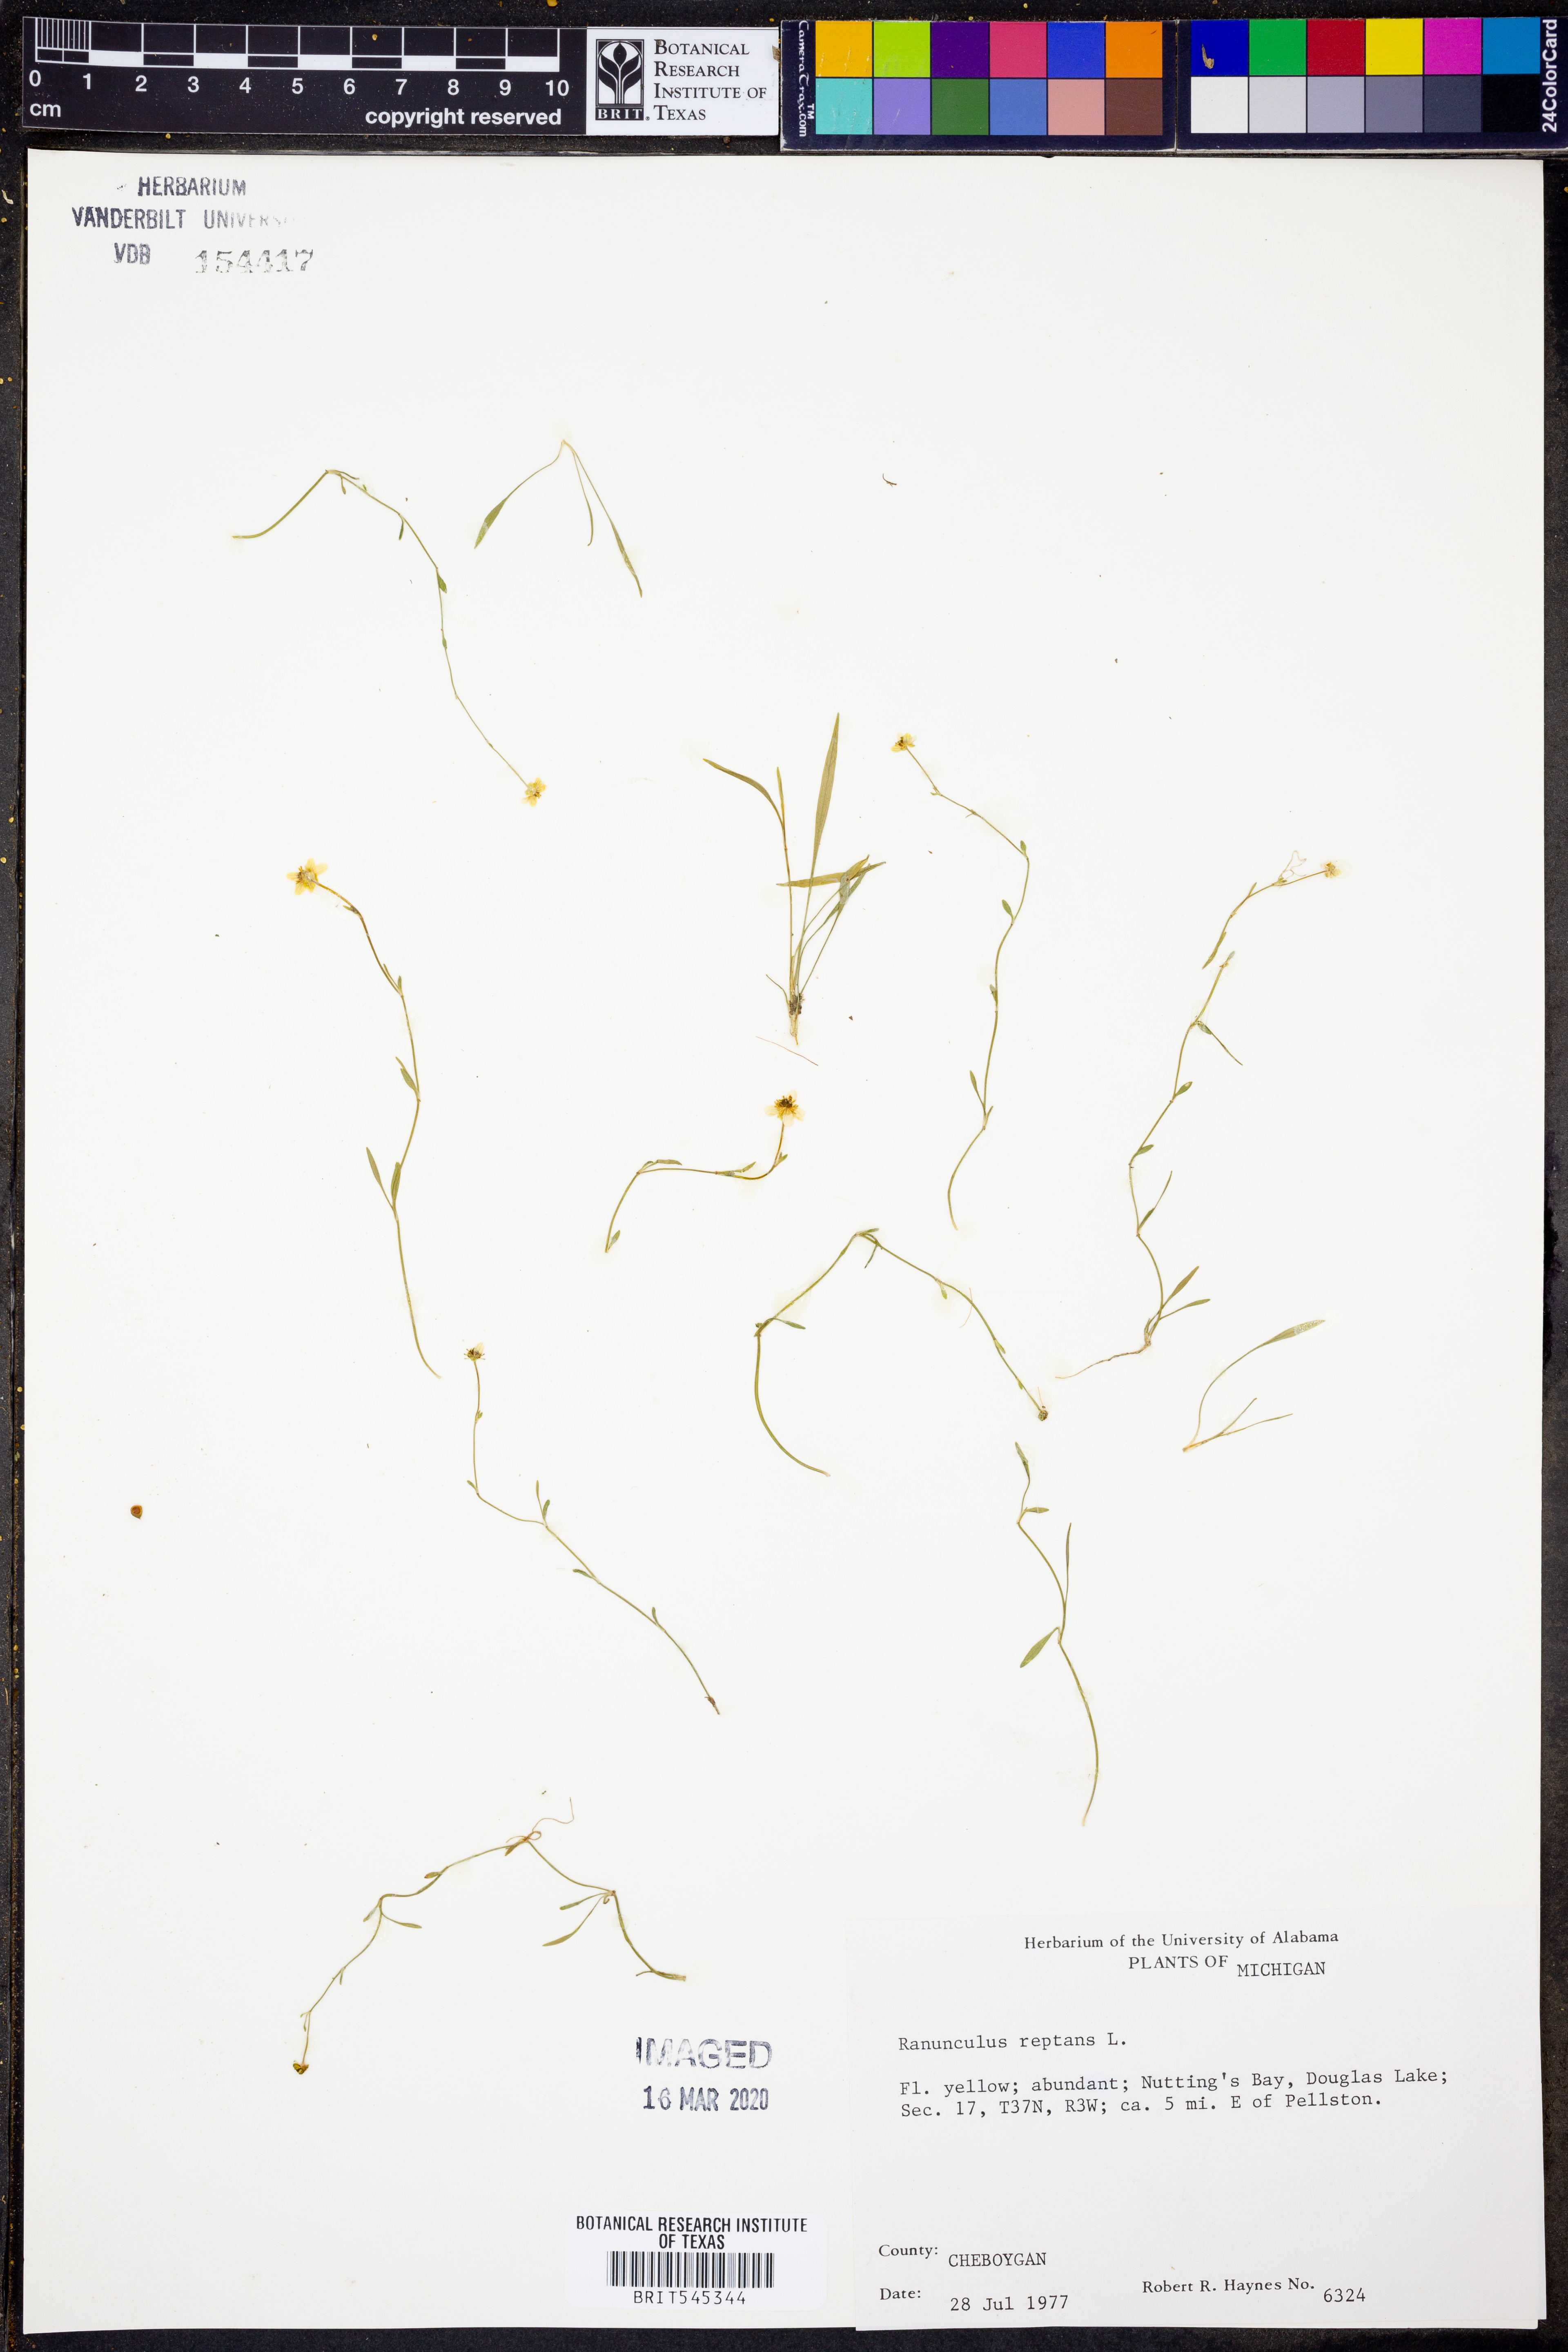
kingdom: Plantae
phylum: Tracheophyta
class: Magnoliopsida
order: Ranunculales
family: Ranunculaceae
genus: Ranunculus
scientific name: Ranunculus reptans
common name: Creeping spearwort
